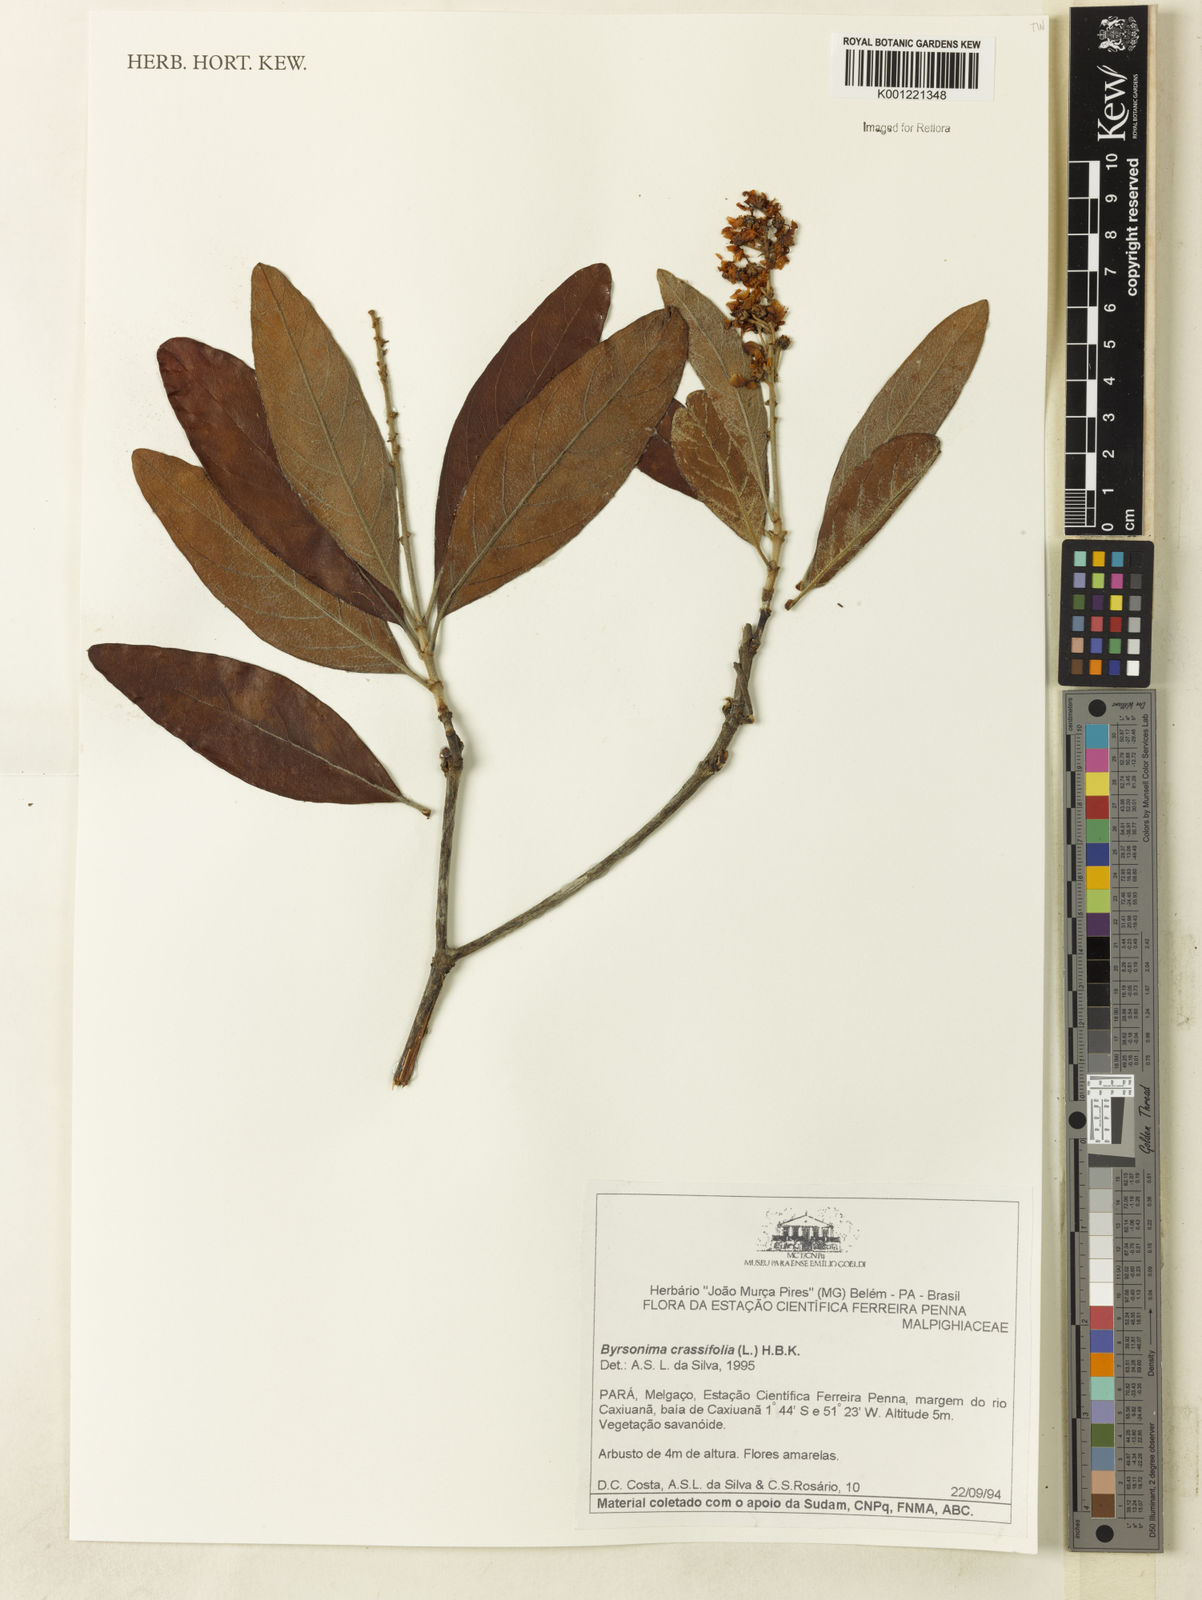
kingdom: Plantae
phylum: Tracheophyta
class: Magnoliopsida
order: Malpighiales
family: Malpighiaceae
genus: Byrsonima
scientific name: Byrsonima crassifolia
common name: Golden spoon
